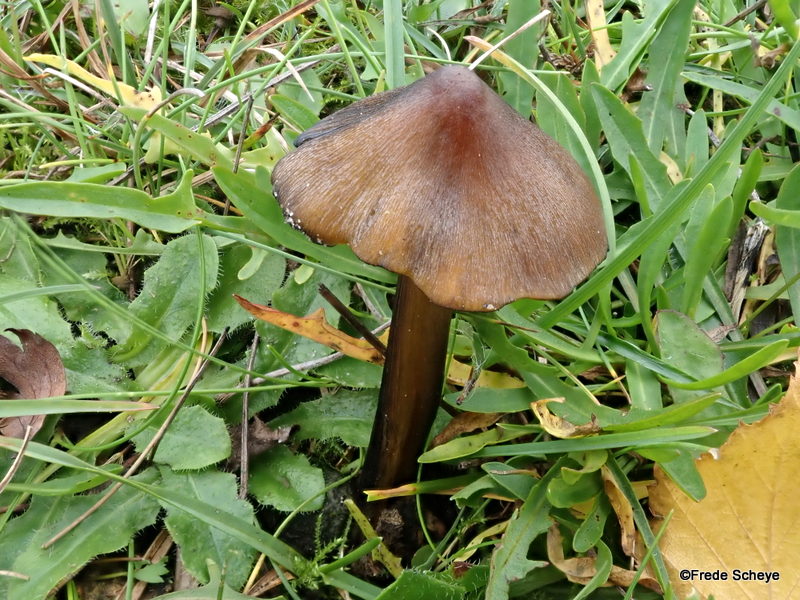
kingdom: Fungi
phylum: Basidiomycota
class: Agaricomycetes
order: Agaricales
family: Hygrophoraceae
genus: Hygrocybe
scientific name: Hygrocybe conica
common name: kegle-vokshat
